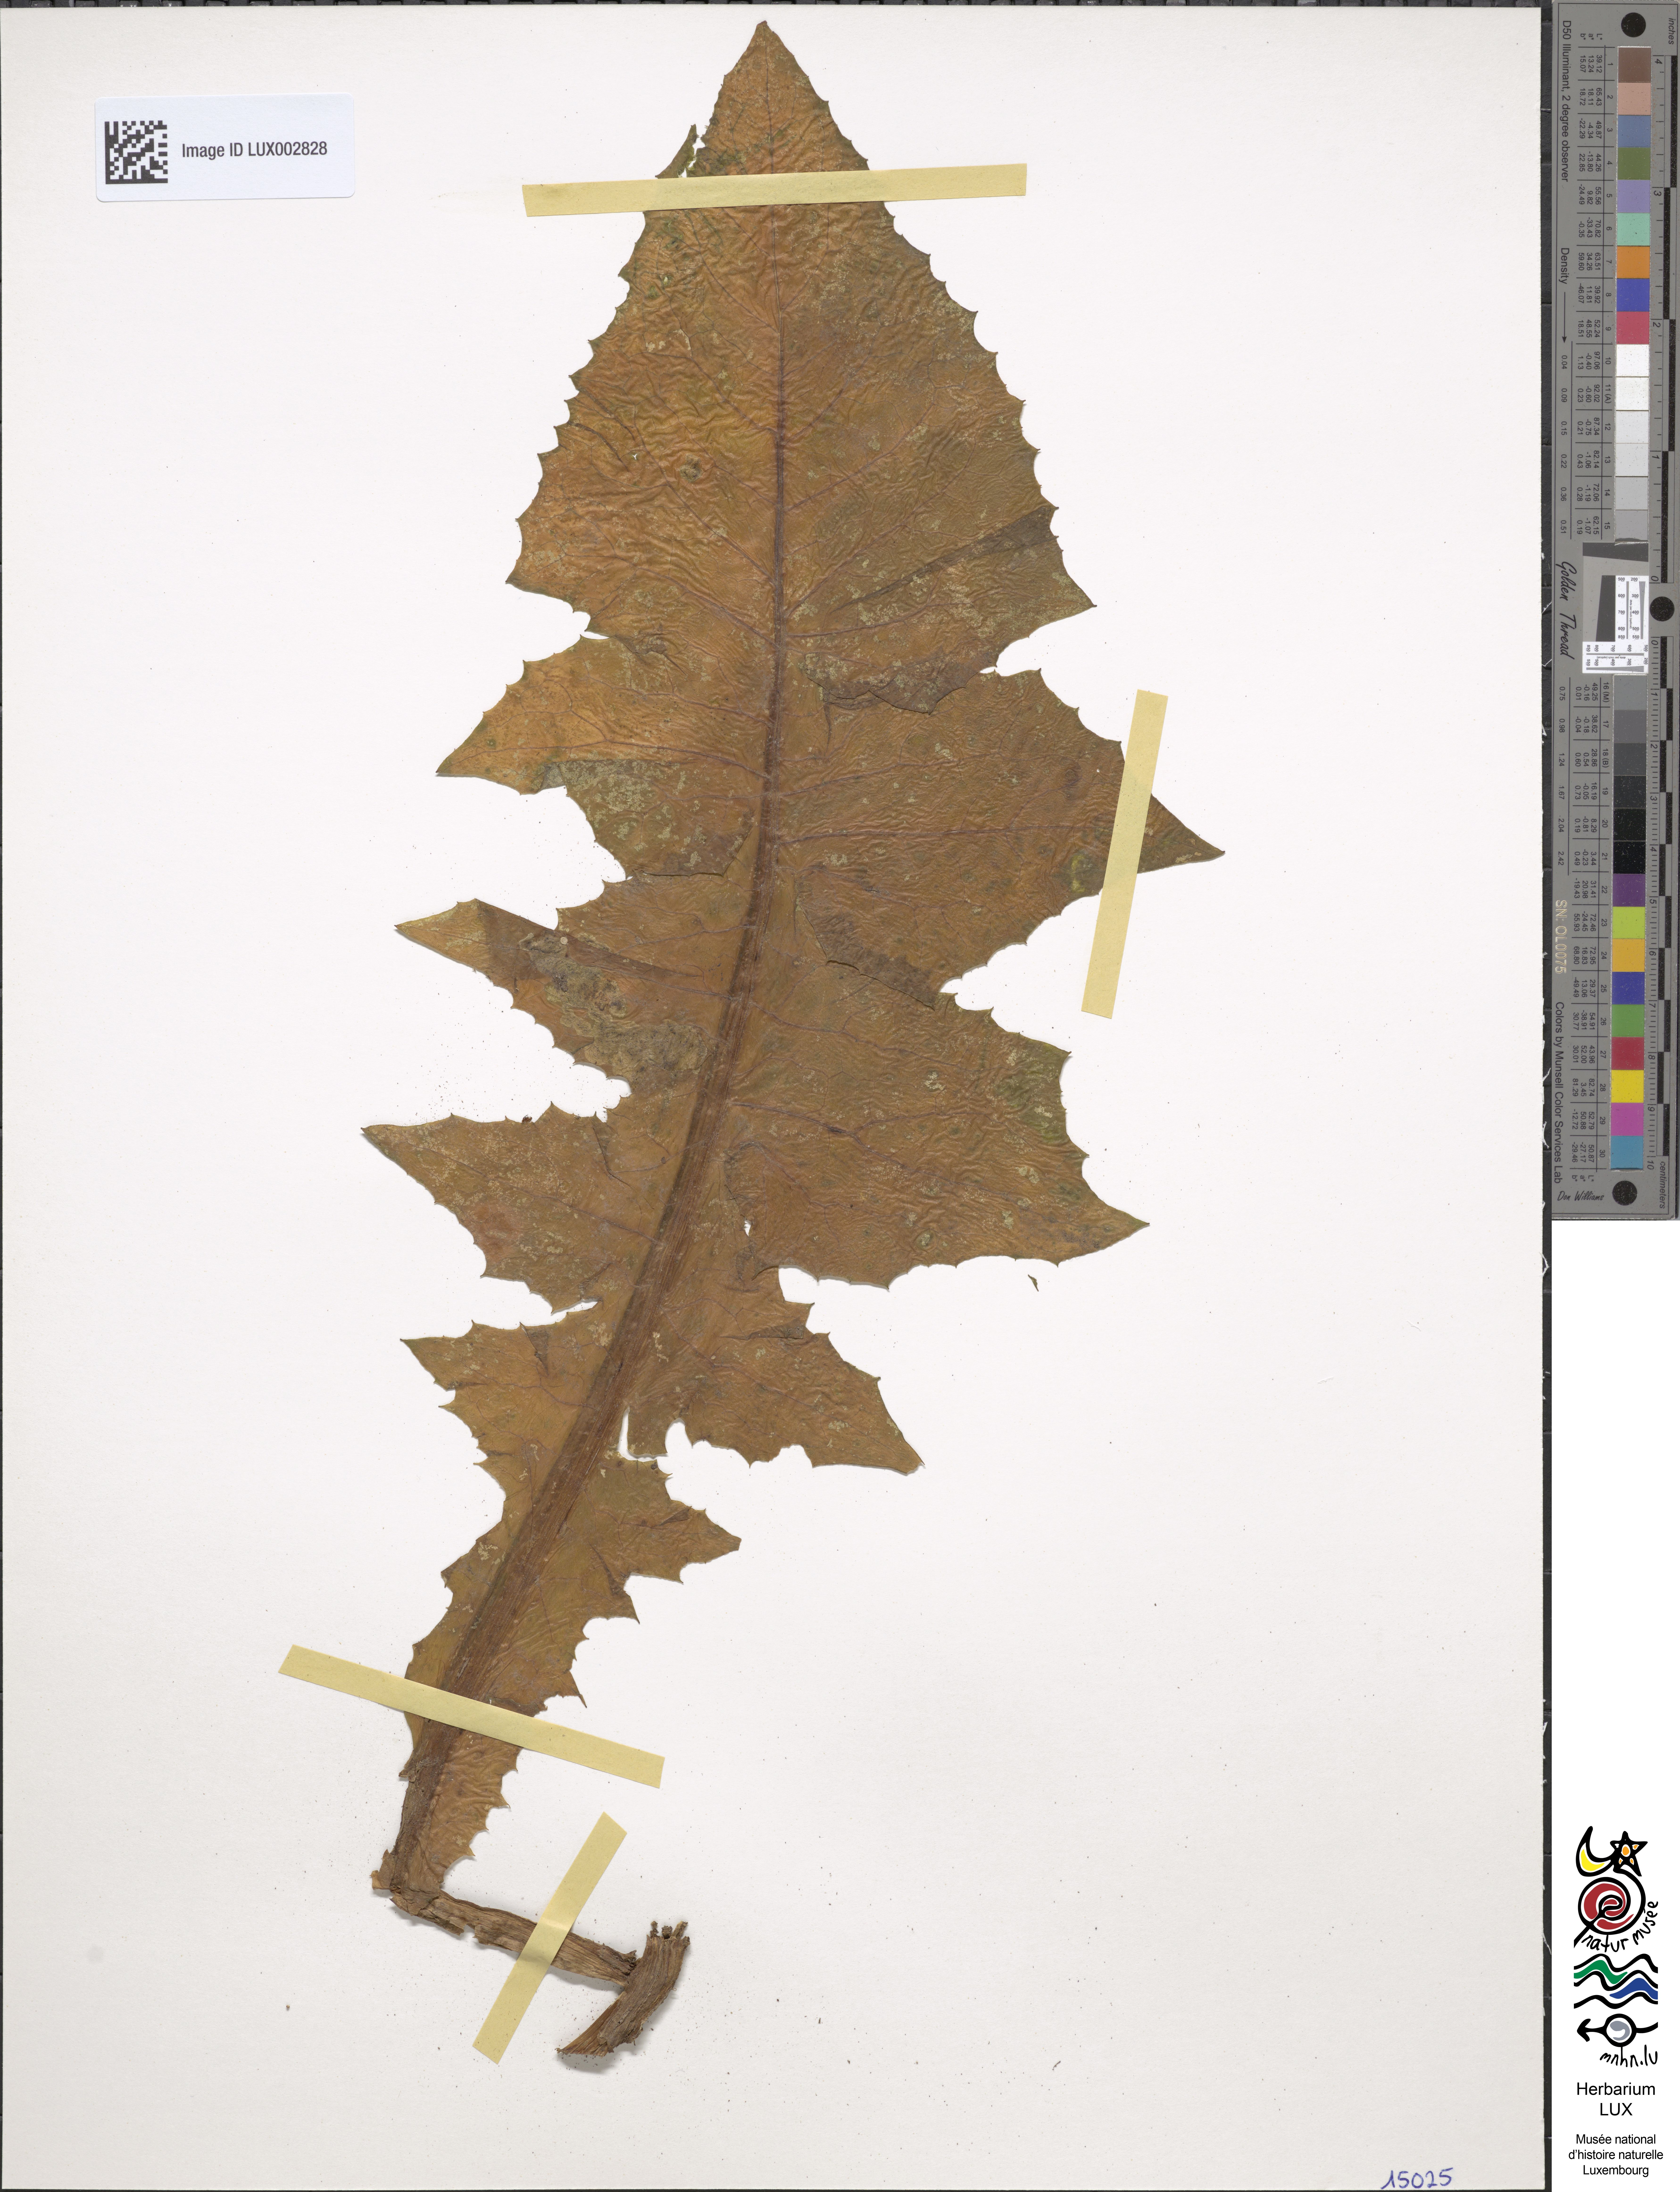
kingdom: Plantae
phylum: Tracheophyta
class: Magnoliopsida
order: Asterales
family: Asteraceae
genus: Lactuca
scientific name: Lactuca plumieri
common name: Hairless blue-sow-thistle
